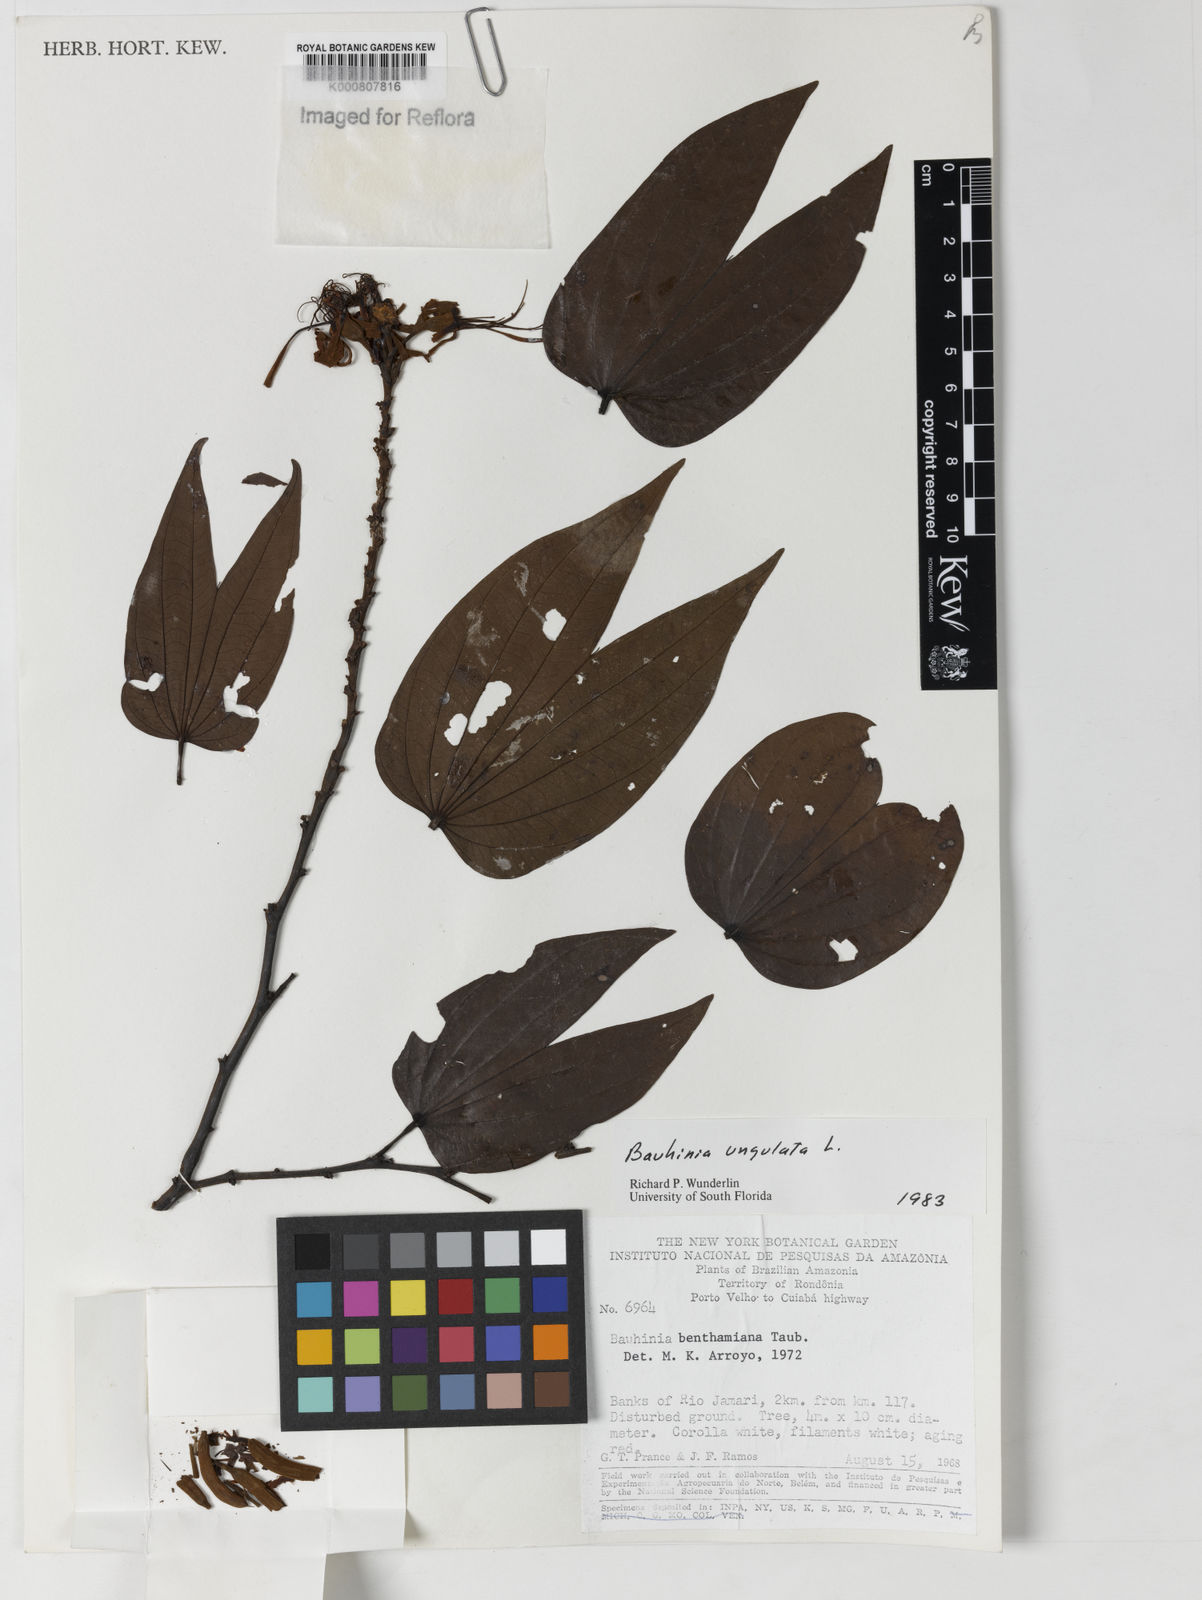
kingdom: Plantae
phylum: Tracheophyta
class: Magnoliopsida
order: Fabales
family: Fabaceae
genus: Bauhinia
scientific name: Bauhinia ungulata
